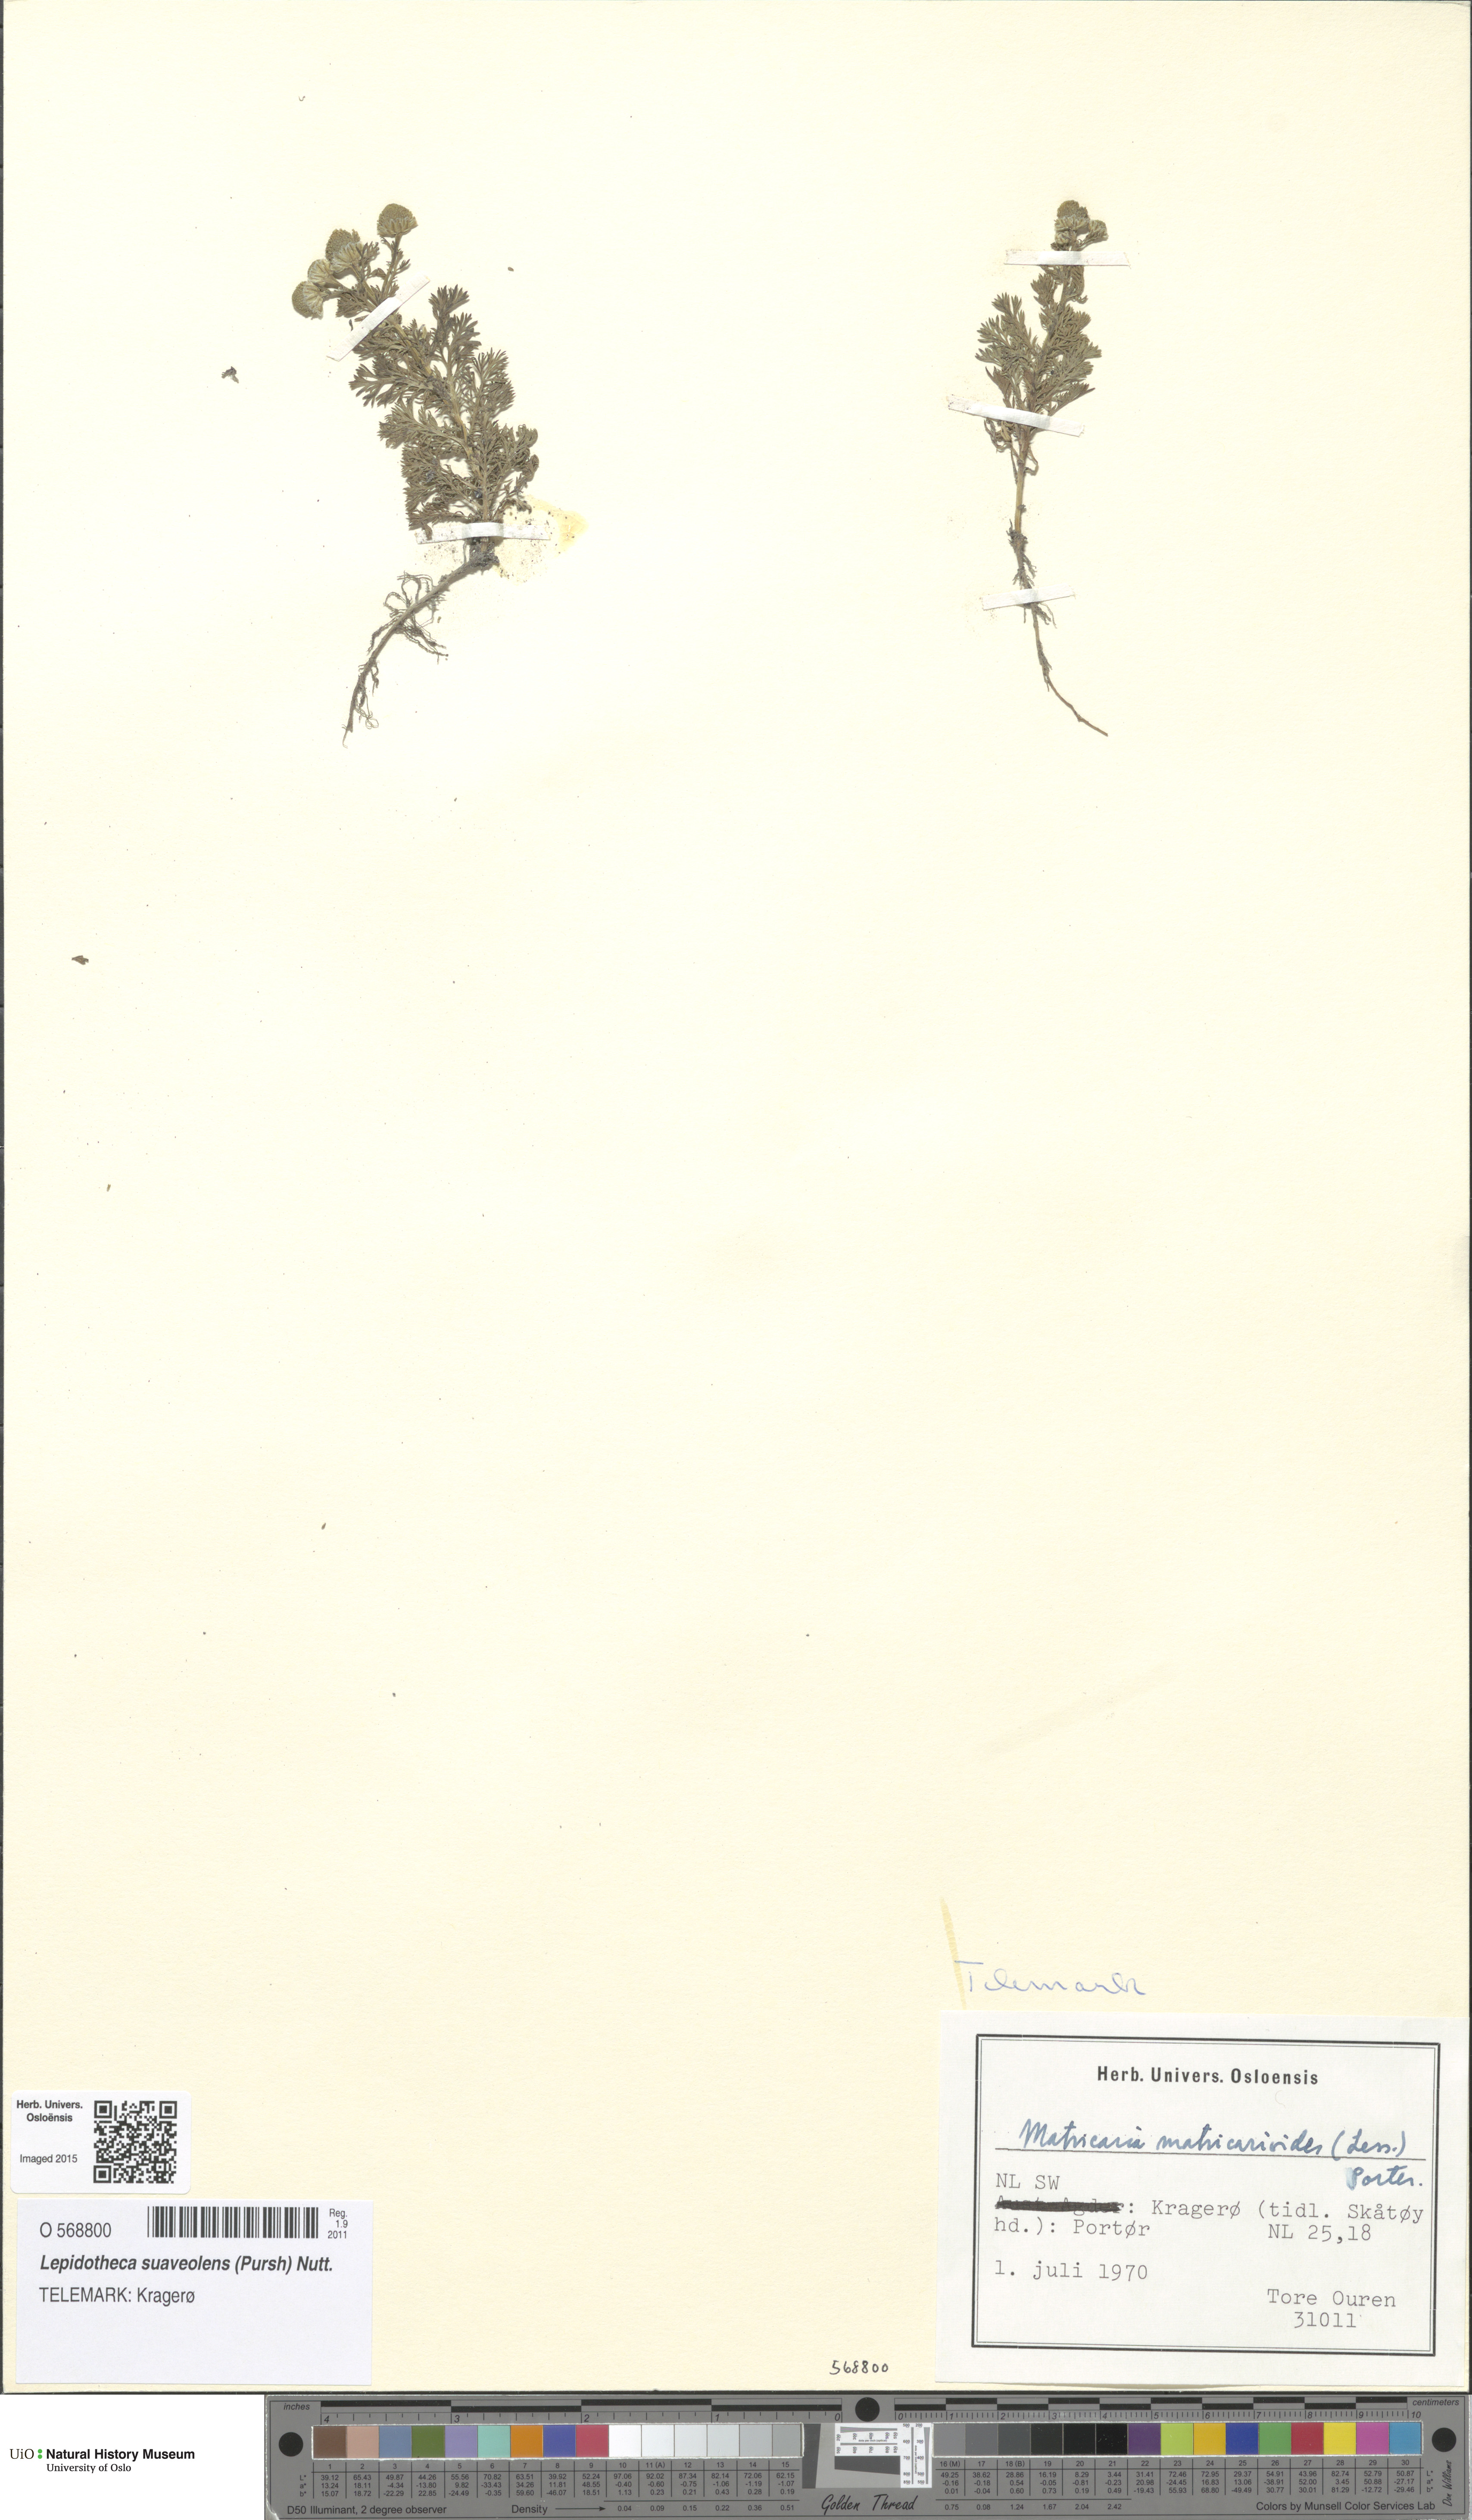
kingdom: Plantae
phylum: Tracheophyta
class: Magnoliopsida
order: Asterales
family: Asteraceae
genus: Matricaria
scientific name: Matricaria discoidea
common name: Disc mayweed
